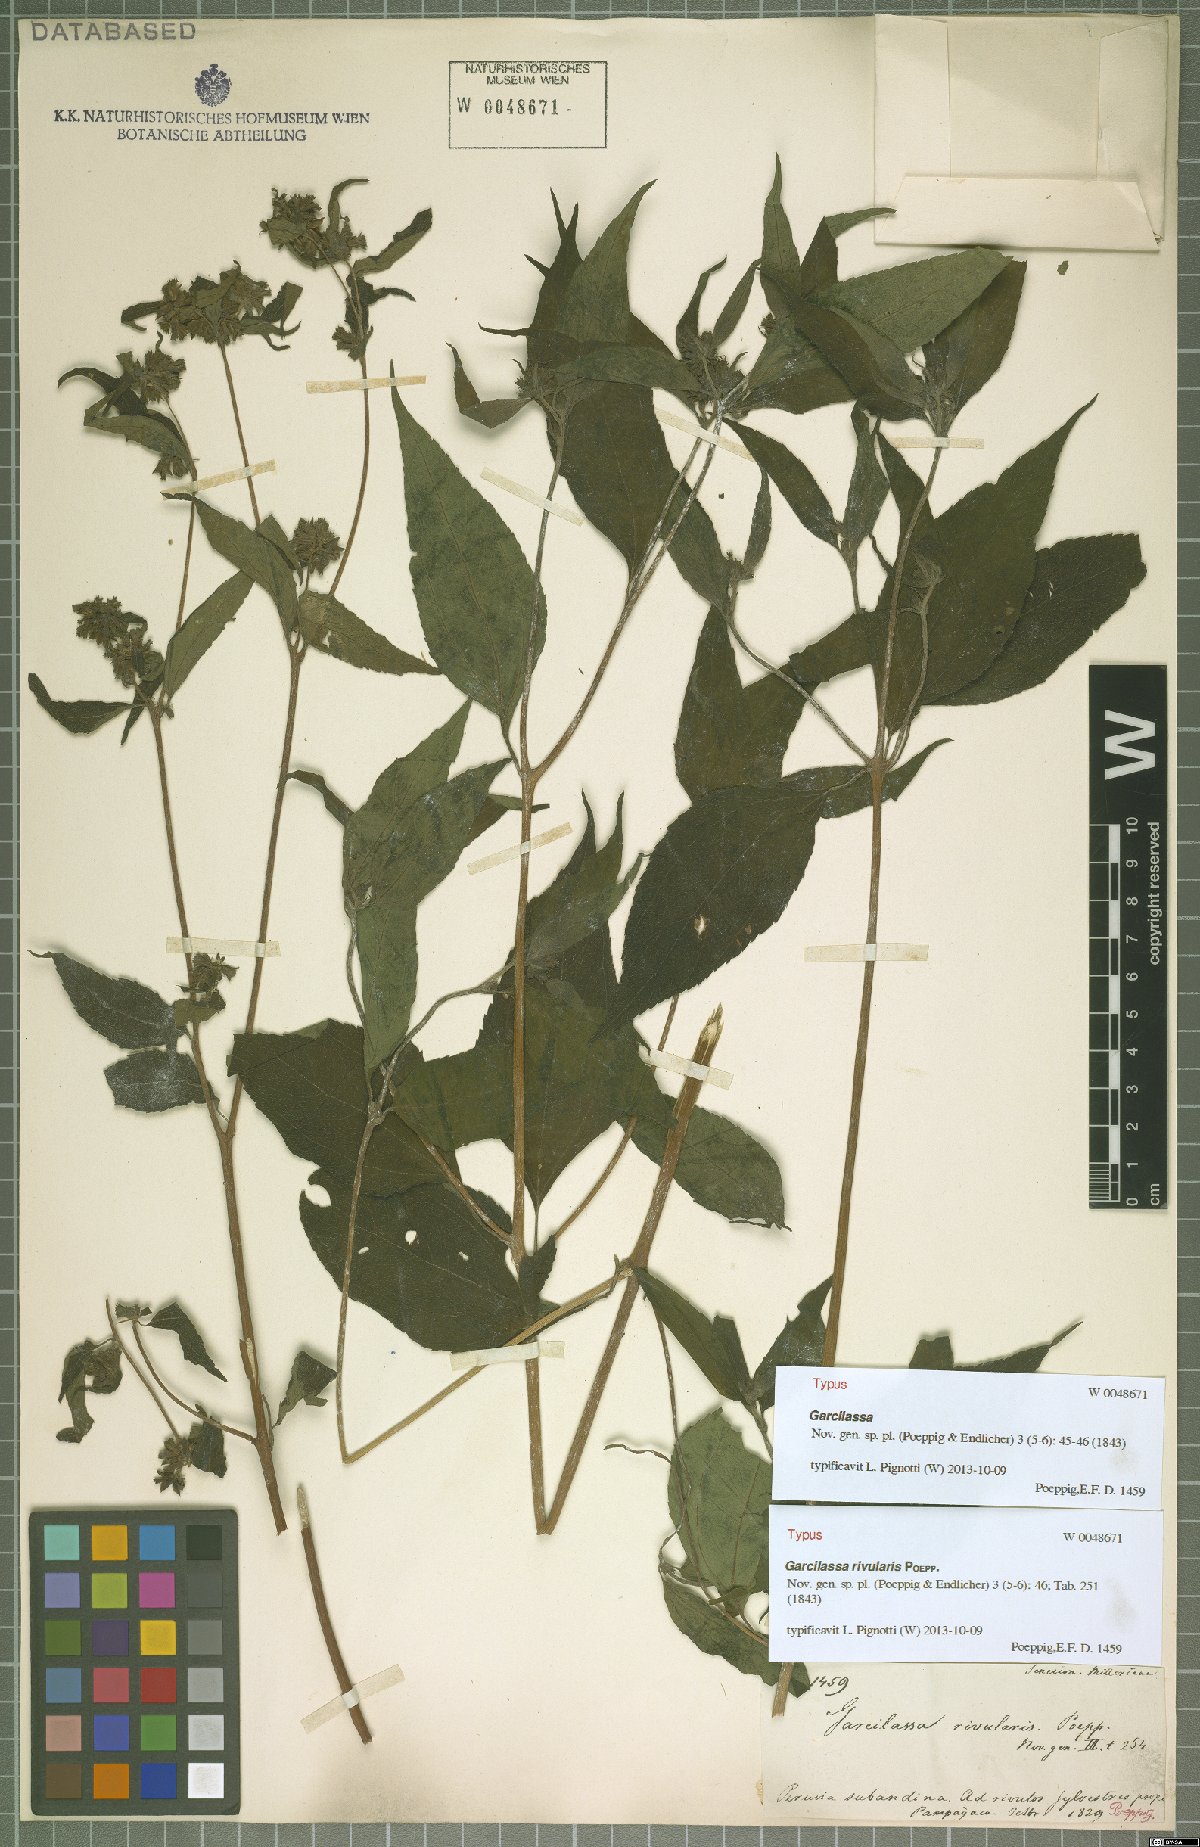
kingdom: Plantae
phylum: Tracheophyta
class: Magnoliopsida
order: Asterales
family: Asteraceae
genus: Hymenostephium
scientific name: Hymenostephium rivularis
